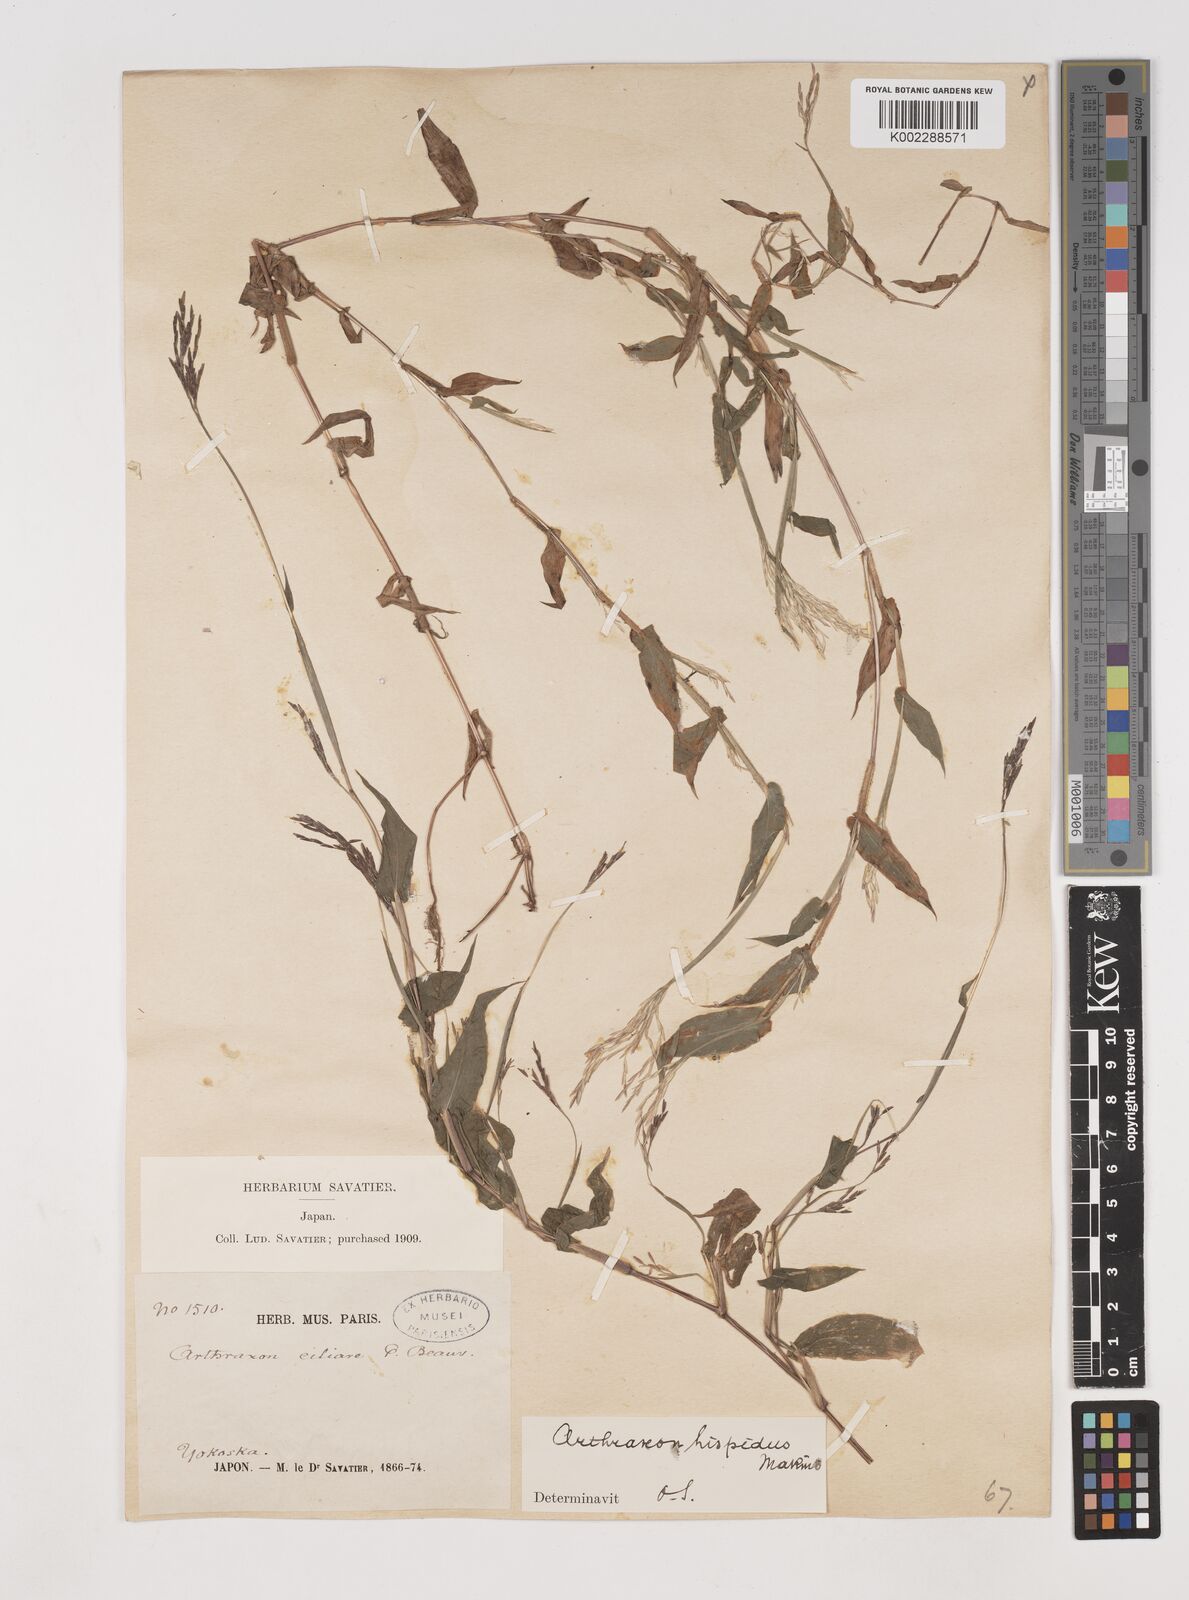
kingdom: Plantae
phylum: Tracheophyta
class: Liliopsida
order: Poales
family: Poaceae
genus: Arthraxon
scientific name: Arthraxon hispidus
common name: Small carpgrass
